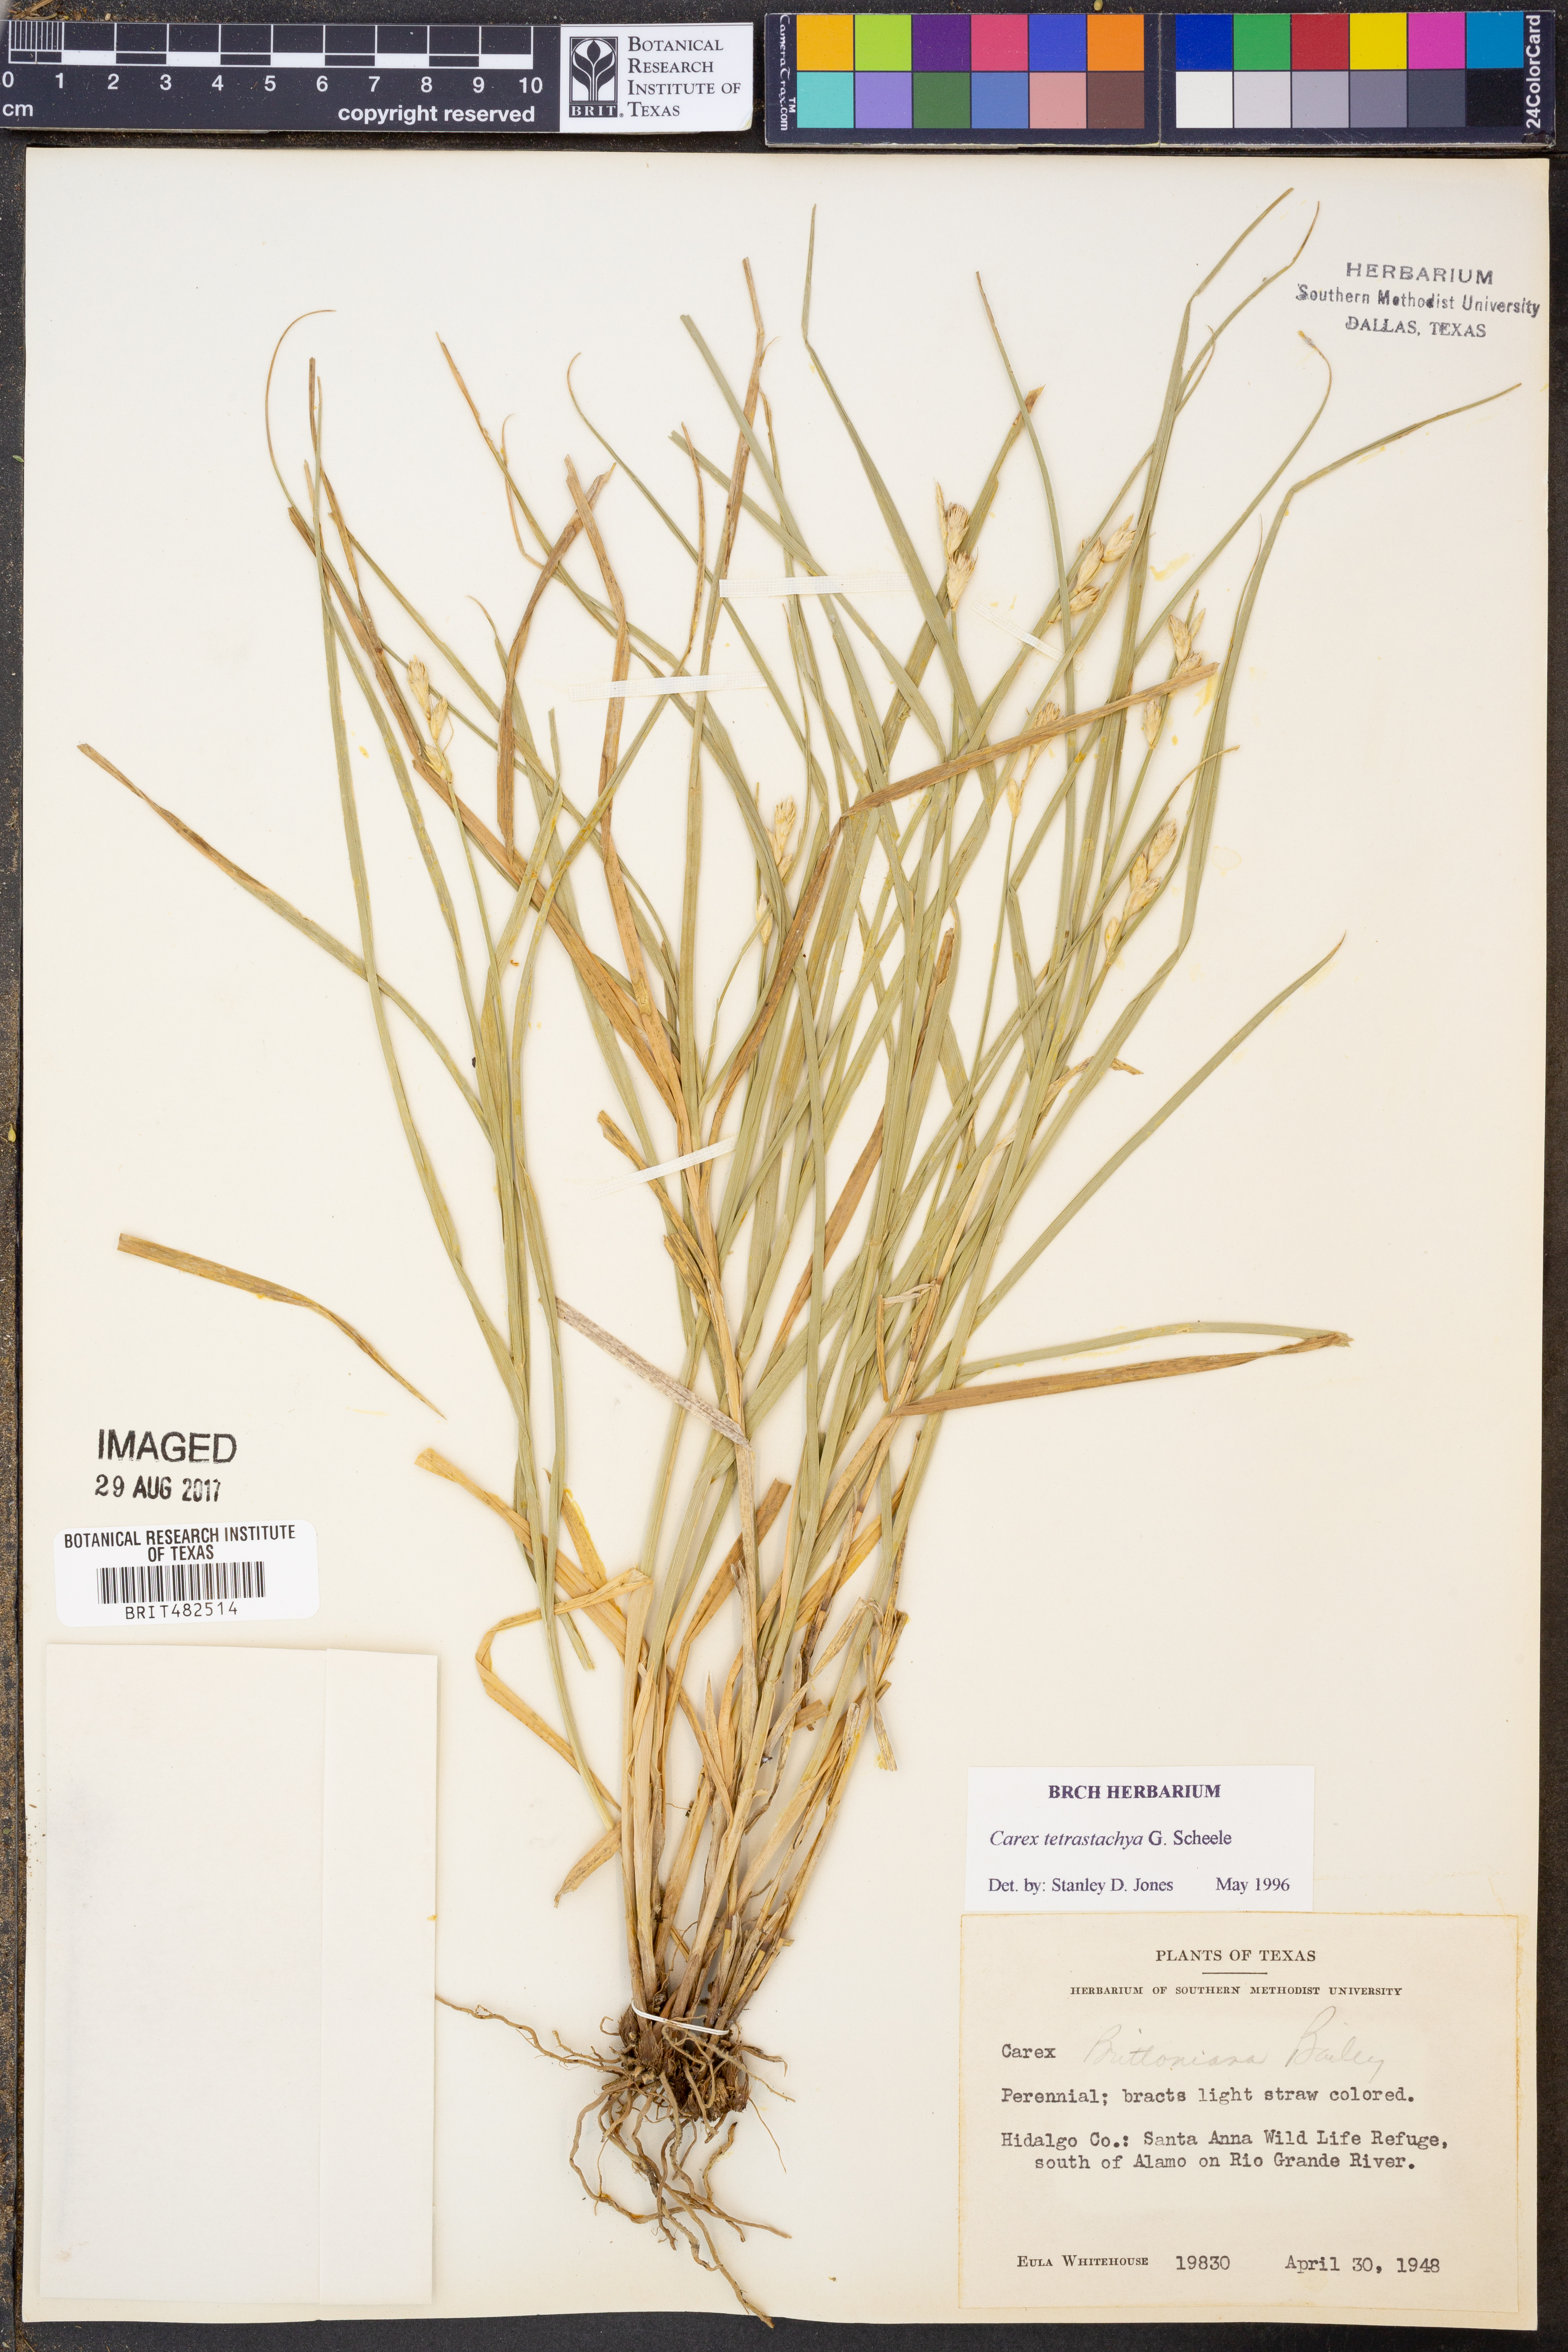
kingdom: Plantae
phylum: Tracheophyta
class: Liliopsida
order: Poales
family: Cyperaceae
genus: Carex
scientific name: Carex tetrastachya
